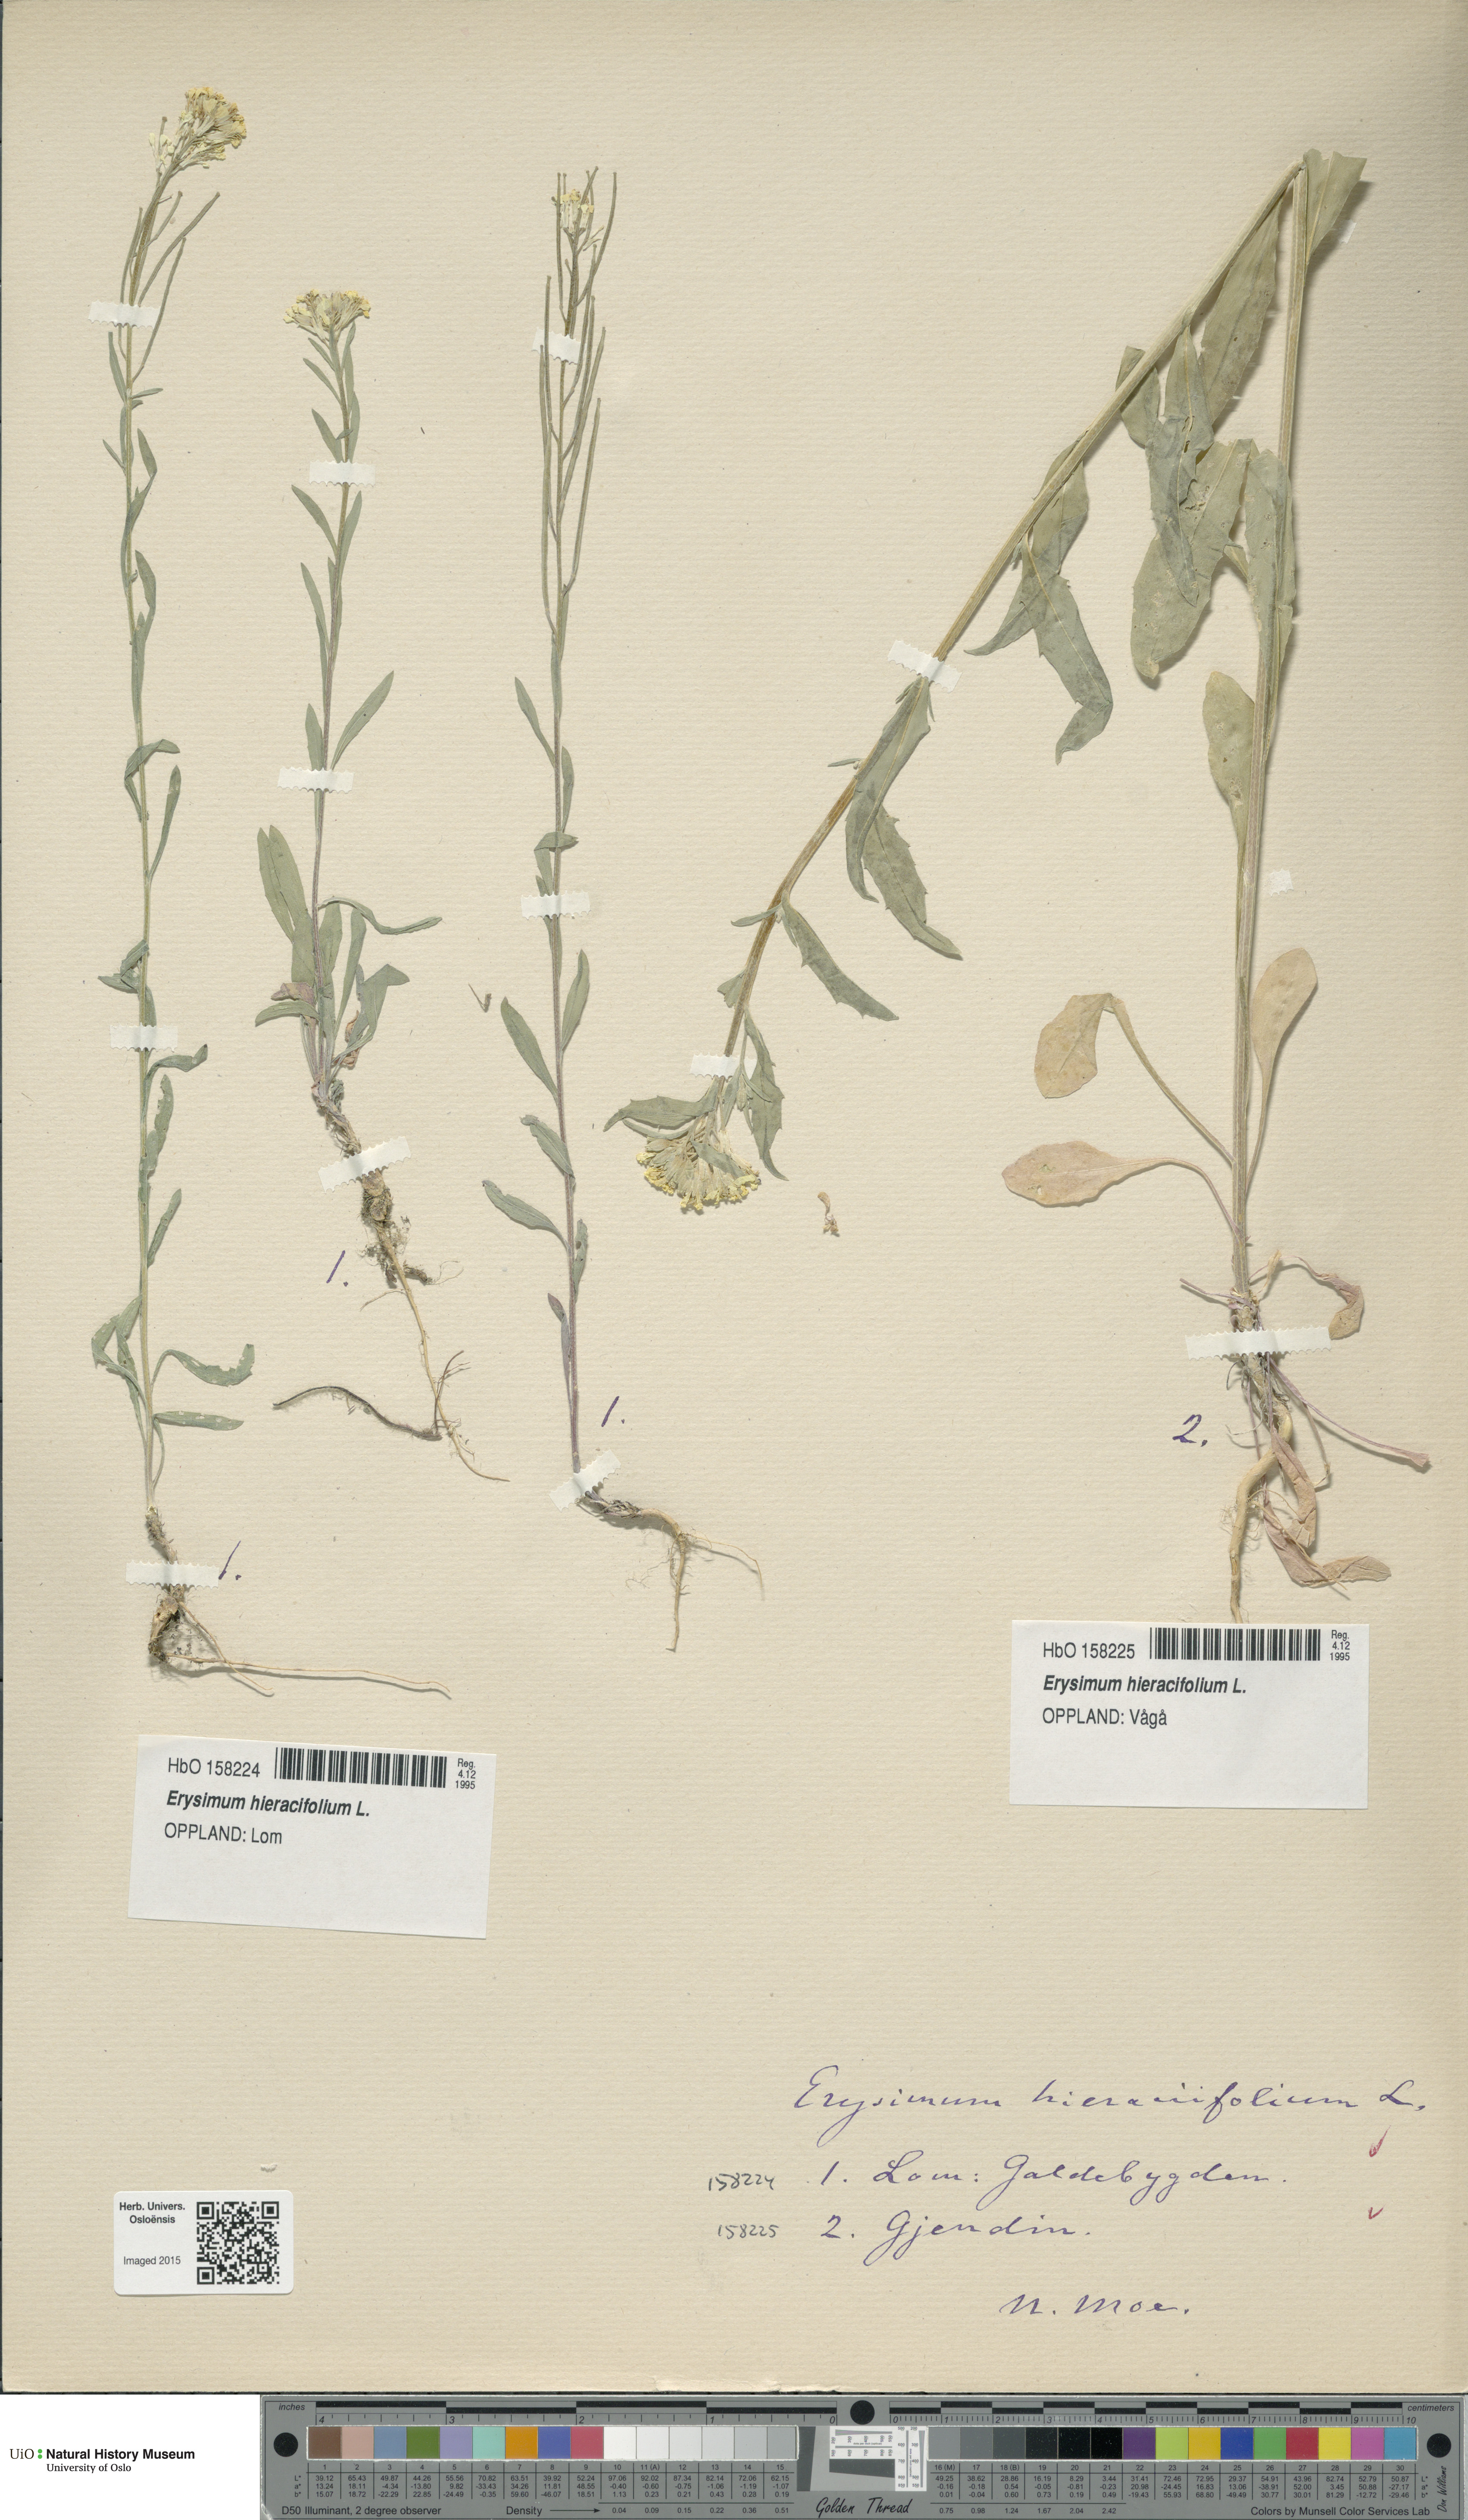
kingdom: Plantae
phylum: Tracheophyta
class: Magnoliopsida
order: Brassicales
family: Brassicaceae
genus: Erysimum
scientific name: Erysimum virgatum
